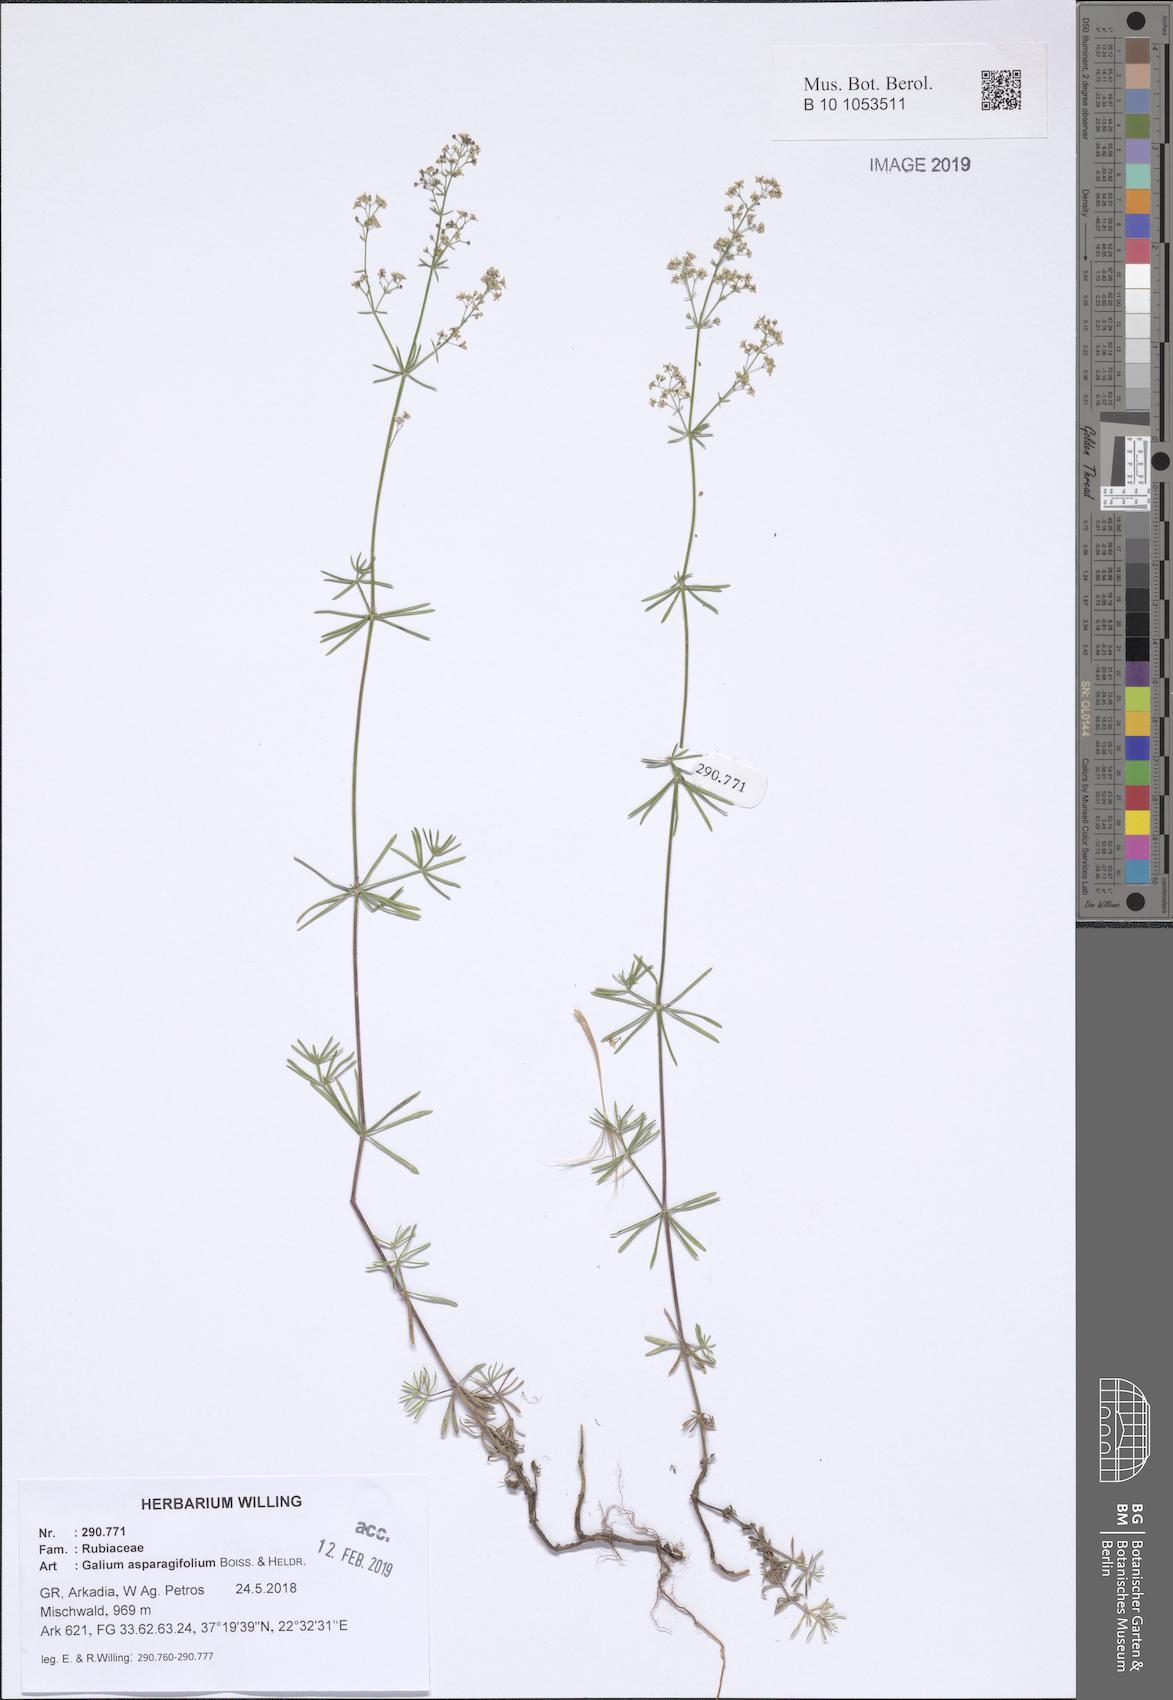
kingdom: Plantae
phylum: Tracheophyta
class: Magnoliopsida
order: Gentianales
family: Rubiaceae
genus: Galium
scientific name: Galium asparagifolium
